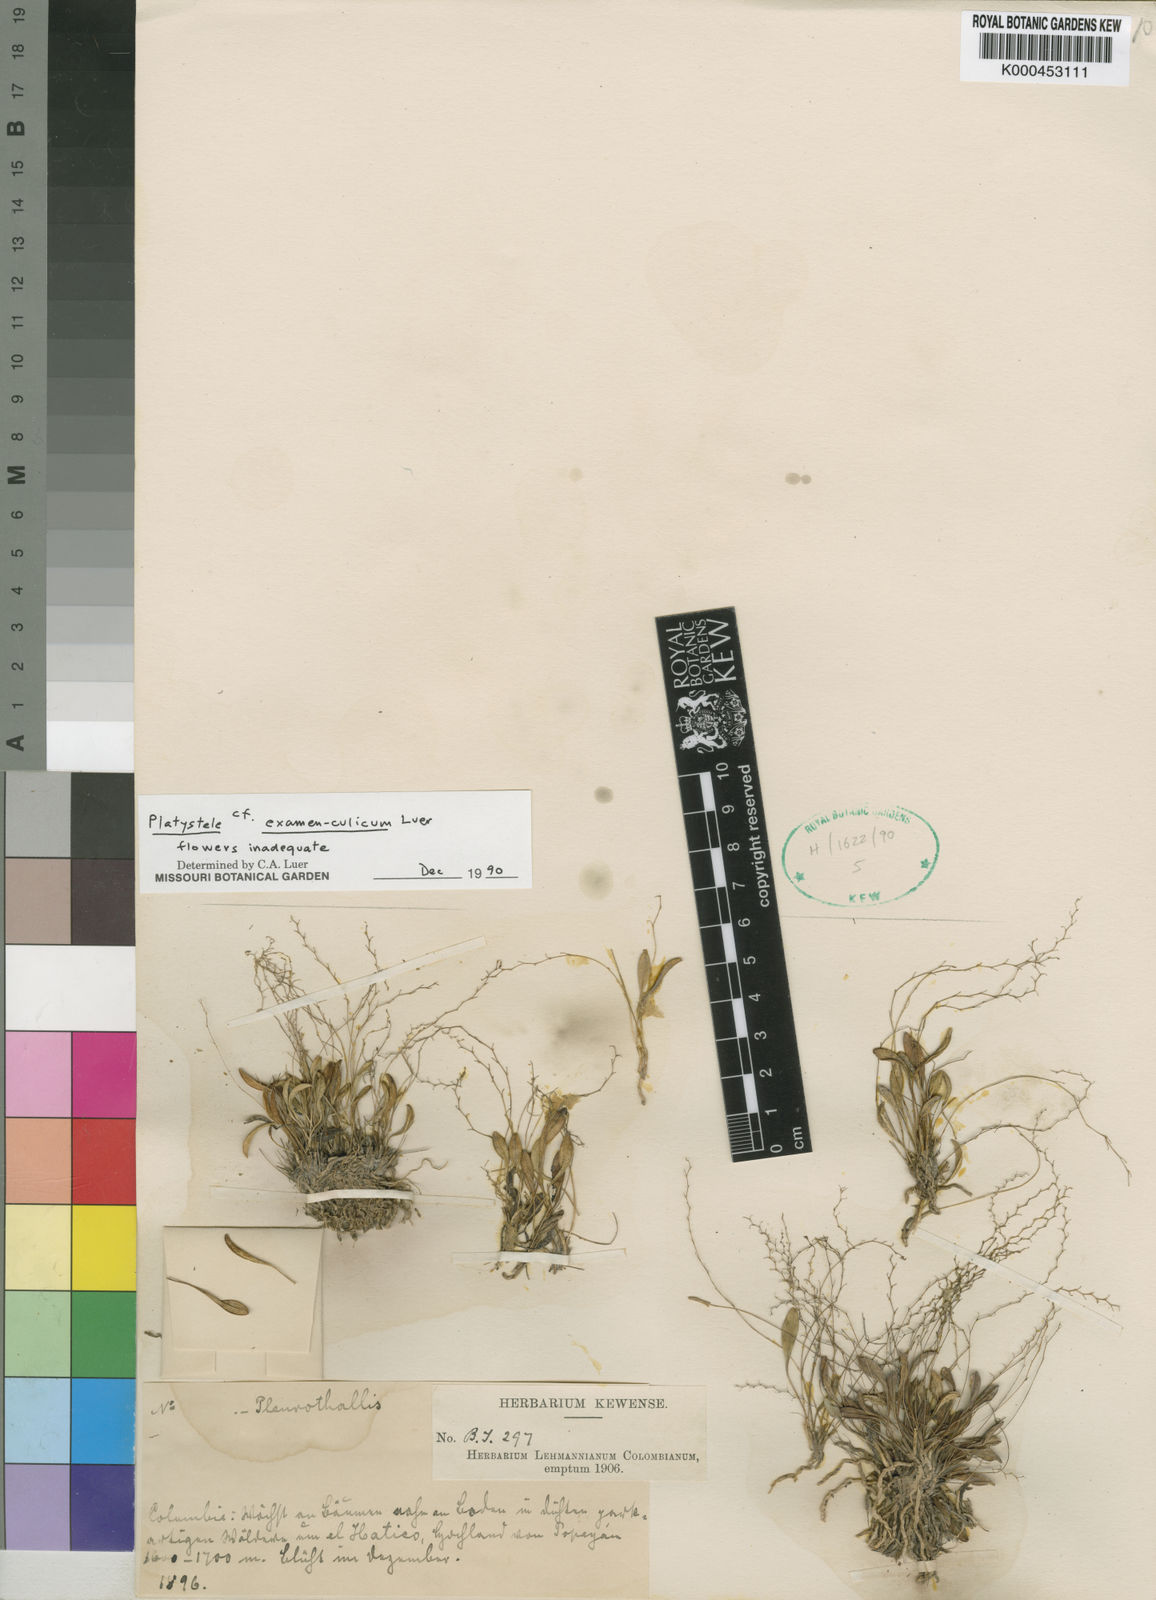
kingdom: Plantae
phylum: Tracheophyta
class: Liliopsida
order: Asparagales
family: Orchidaceae
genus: Platystele
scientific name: Platystele examen-culicum
